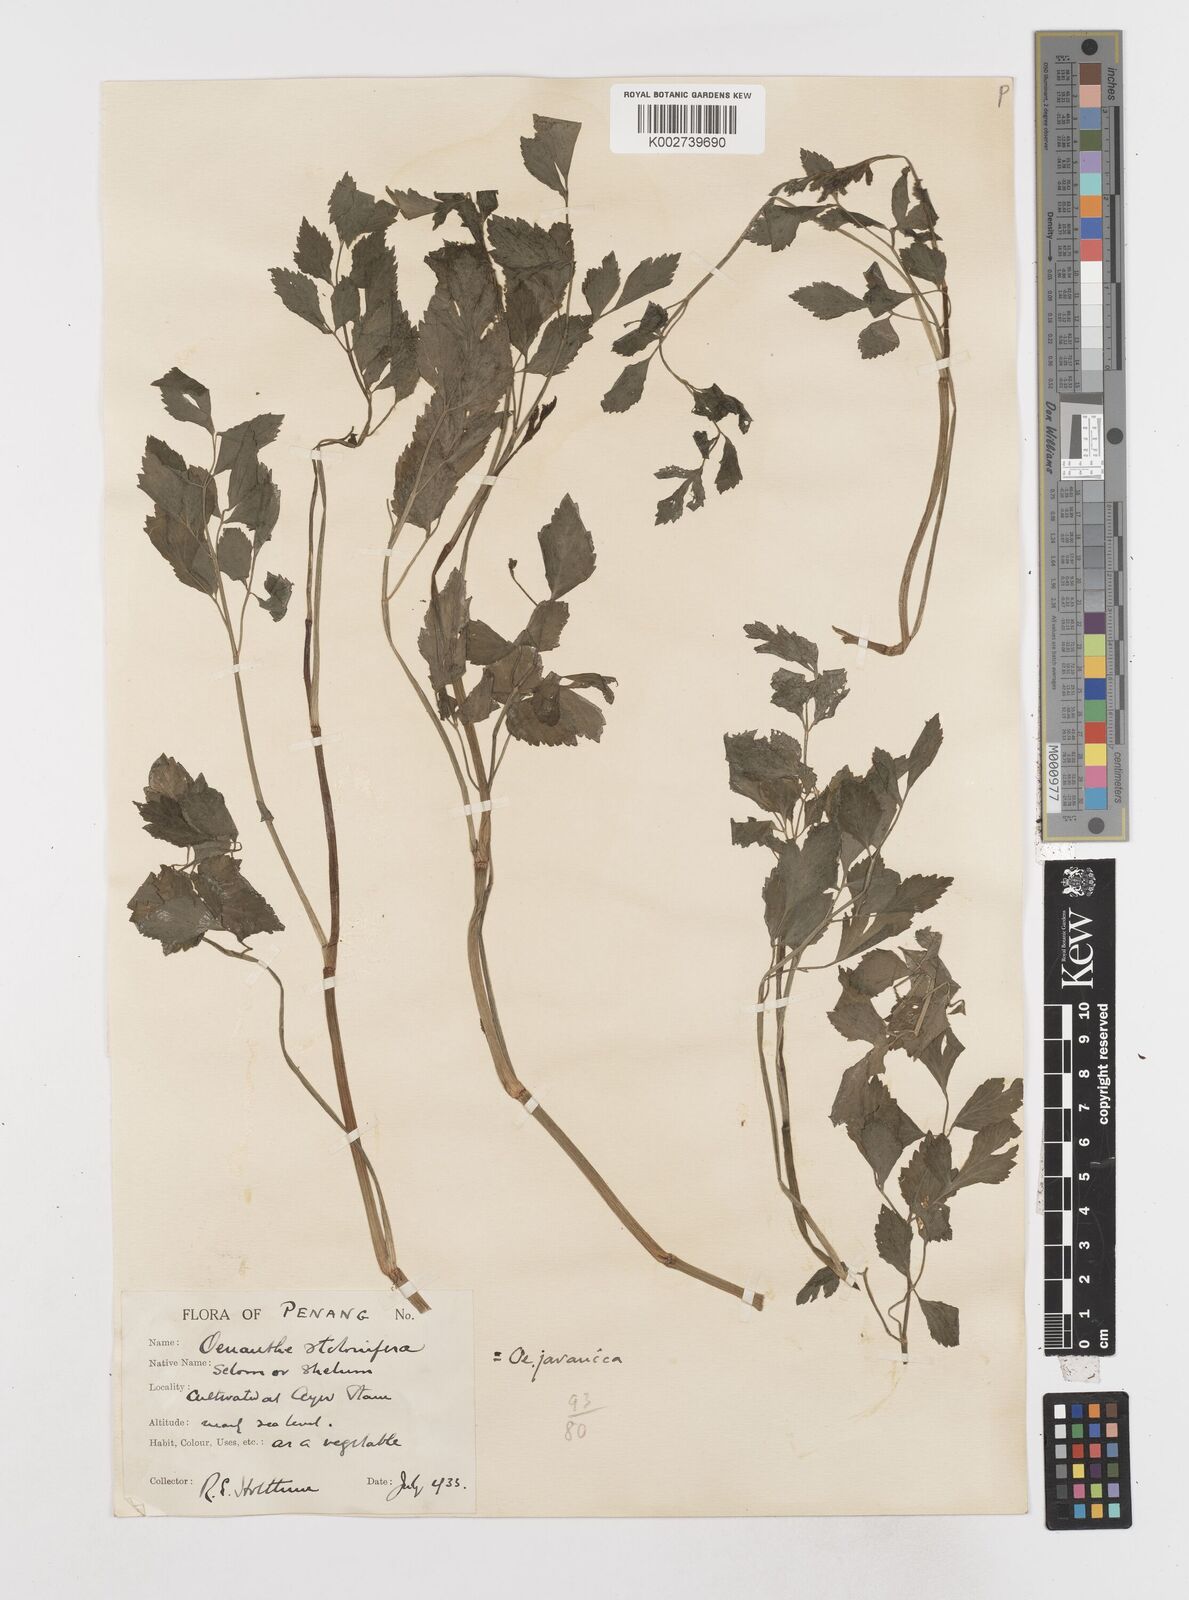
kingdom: Plantae
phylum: Tracheophyta
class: Magnoliopsida
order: Apiales
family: Apiaceae
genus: Oenanthe
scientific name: Oenanthe javanica
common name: Java water-dropwort
